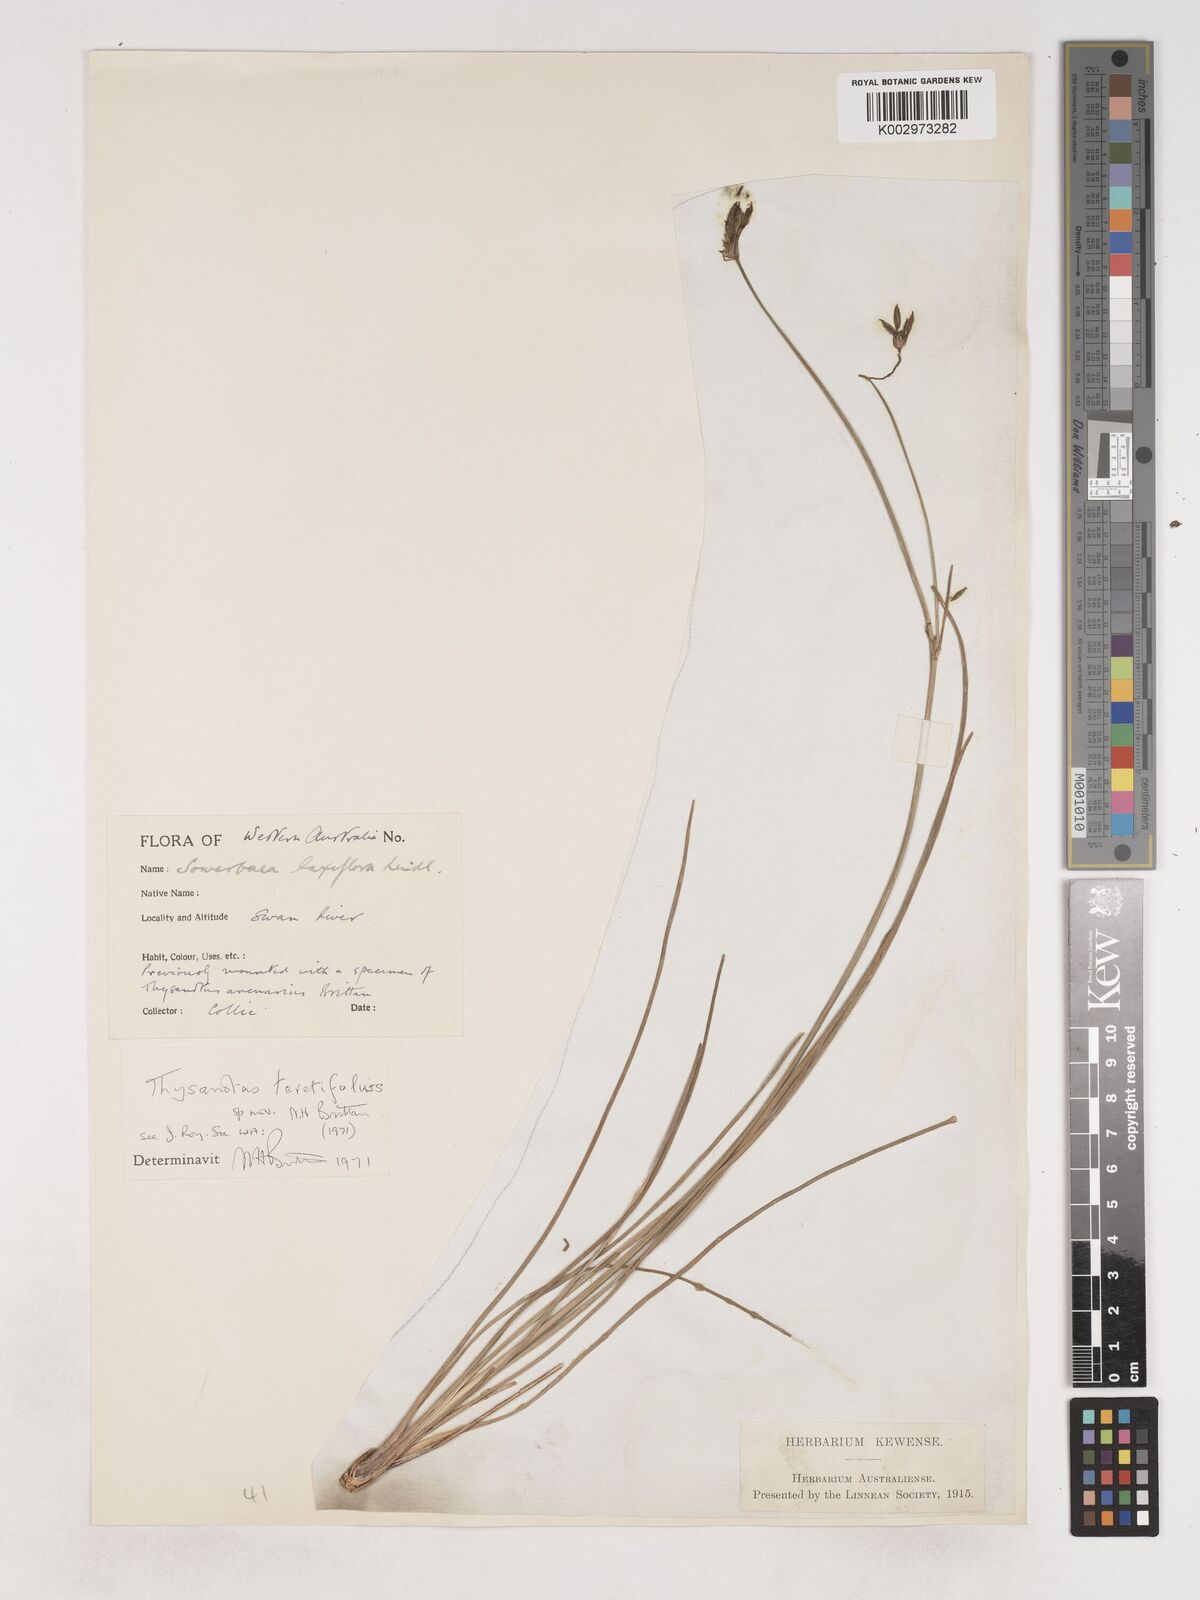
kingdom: Plantae
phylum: Tracheophyta
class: Liliopsida
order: Asparagales
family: Asparagaceae
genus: Thysanotus
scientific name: Thysanotus teretifolius
